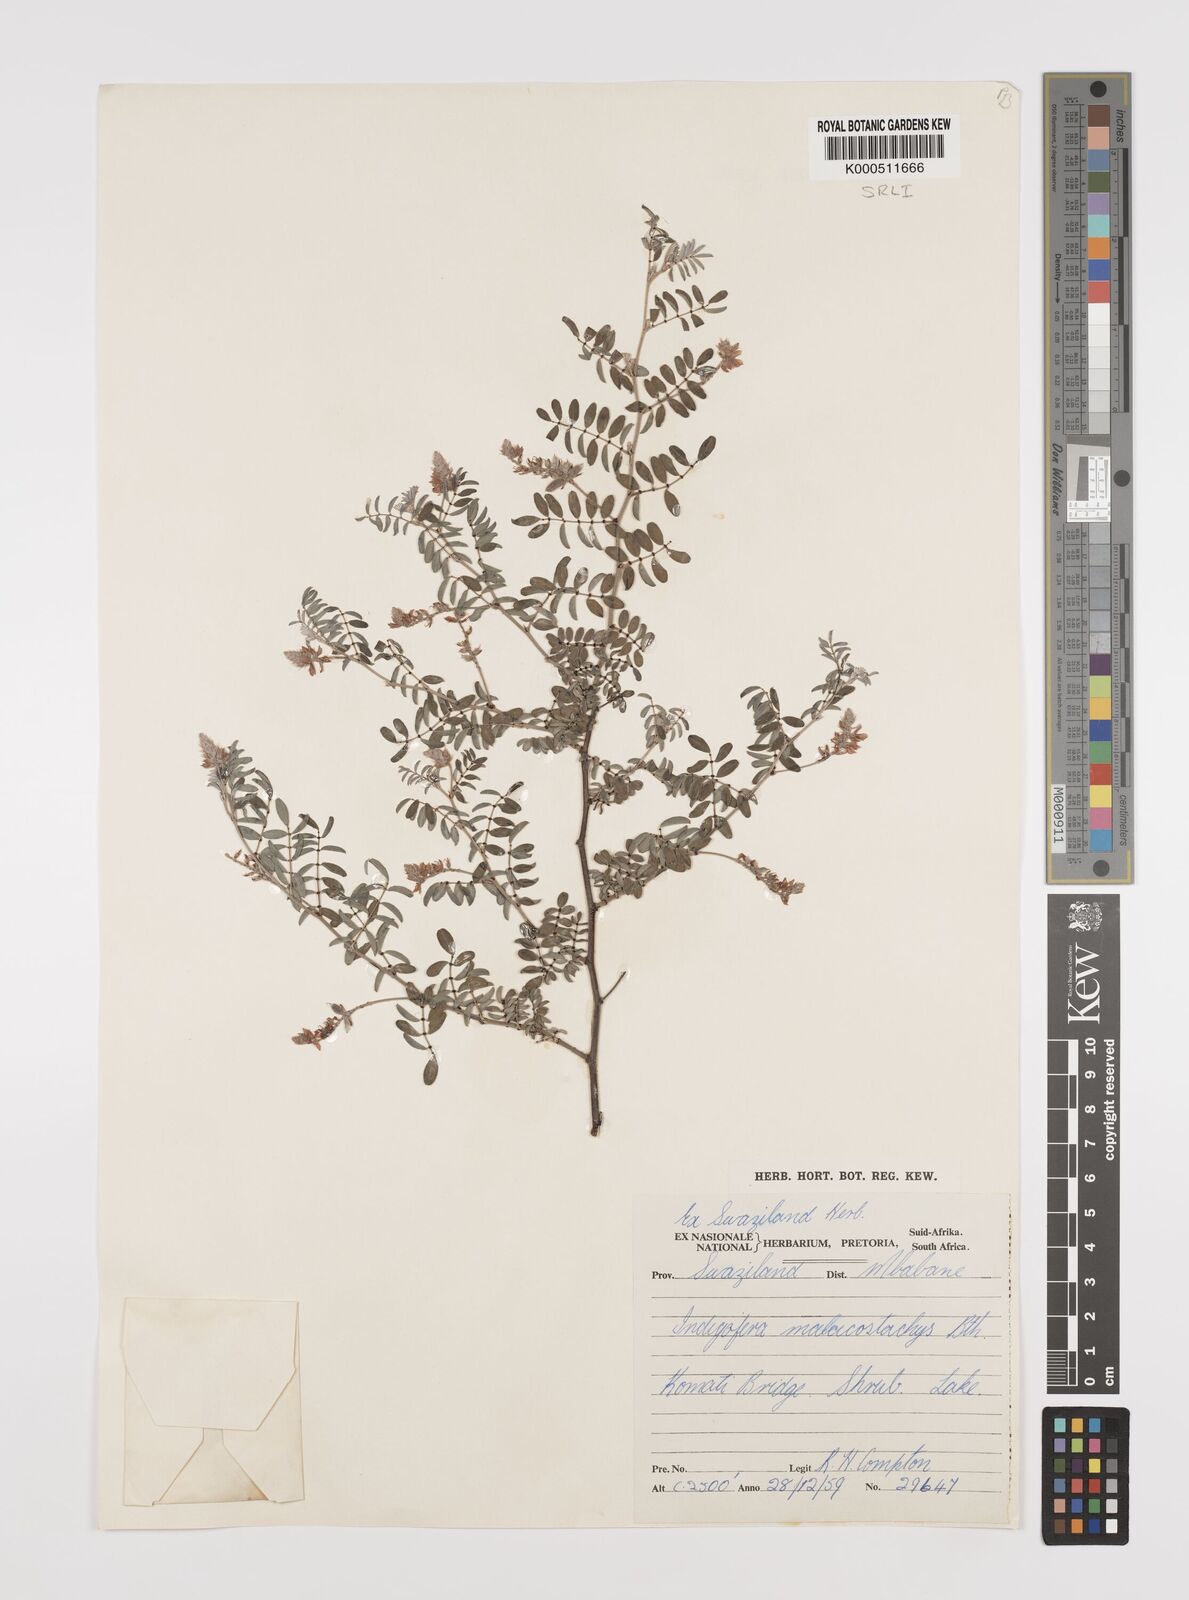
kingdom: Plantae
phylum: Tracheophyta
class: Magnoliopsida
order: Fabales
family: Fabaceae
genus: Indigofera
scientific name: Indigofera
